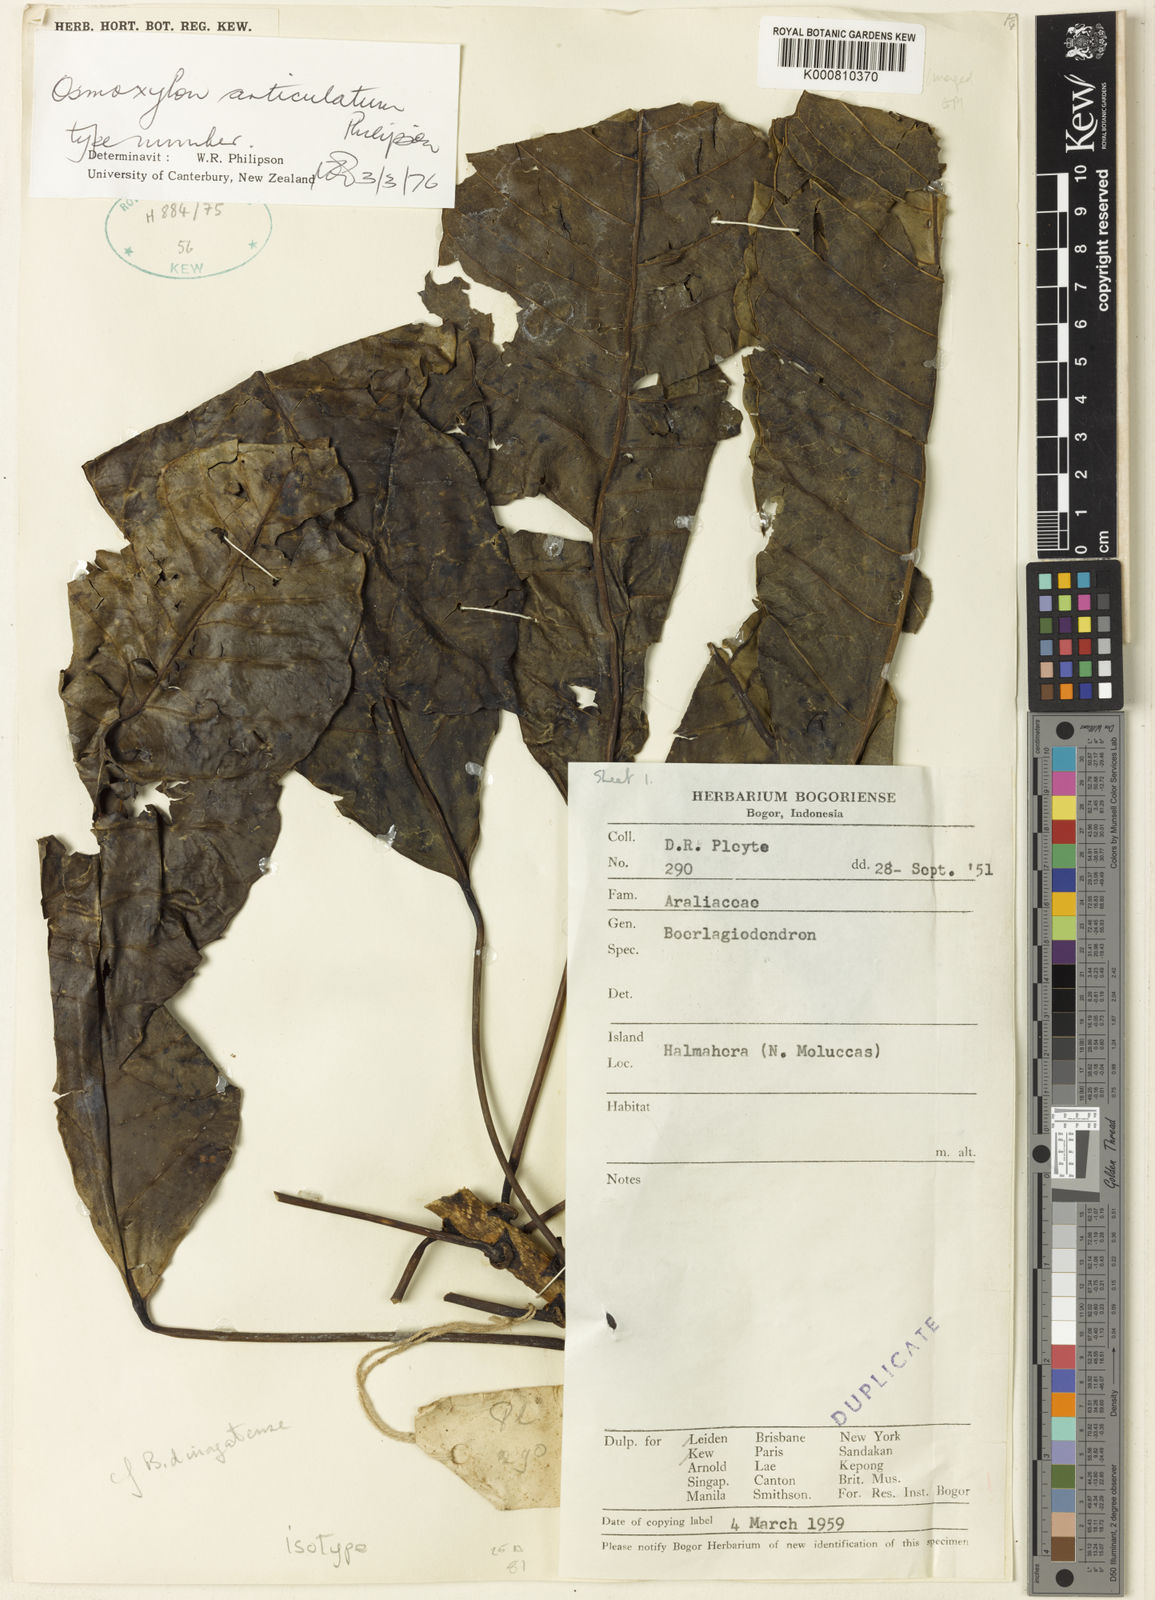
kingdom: Plantae
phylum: Tracheophyta
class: Magnoliopsida
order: Apiales
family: Araliaceae
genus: Osmoxylon
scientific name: Osmoxylon articulatum
